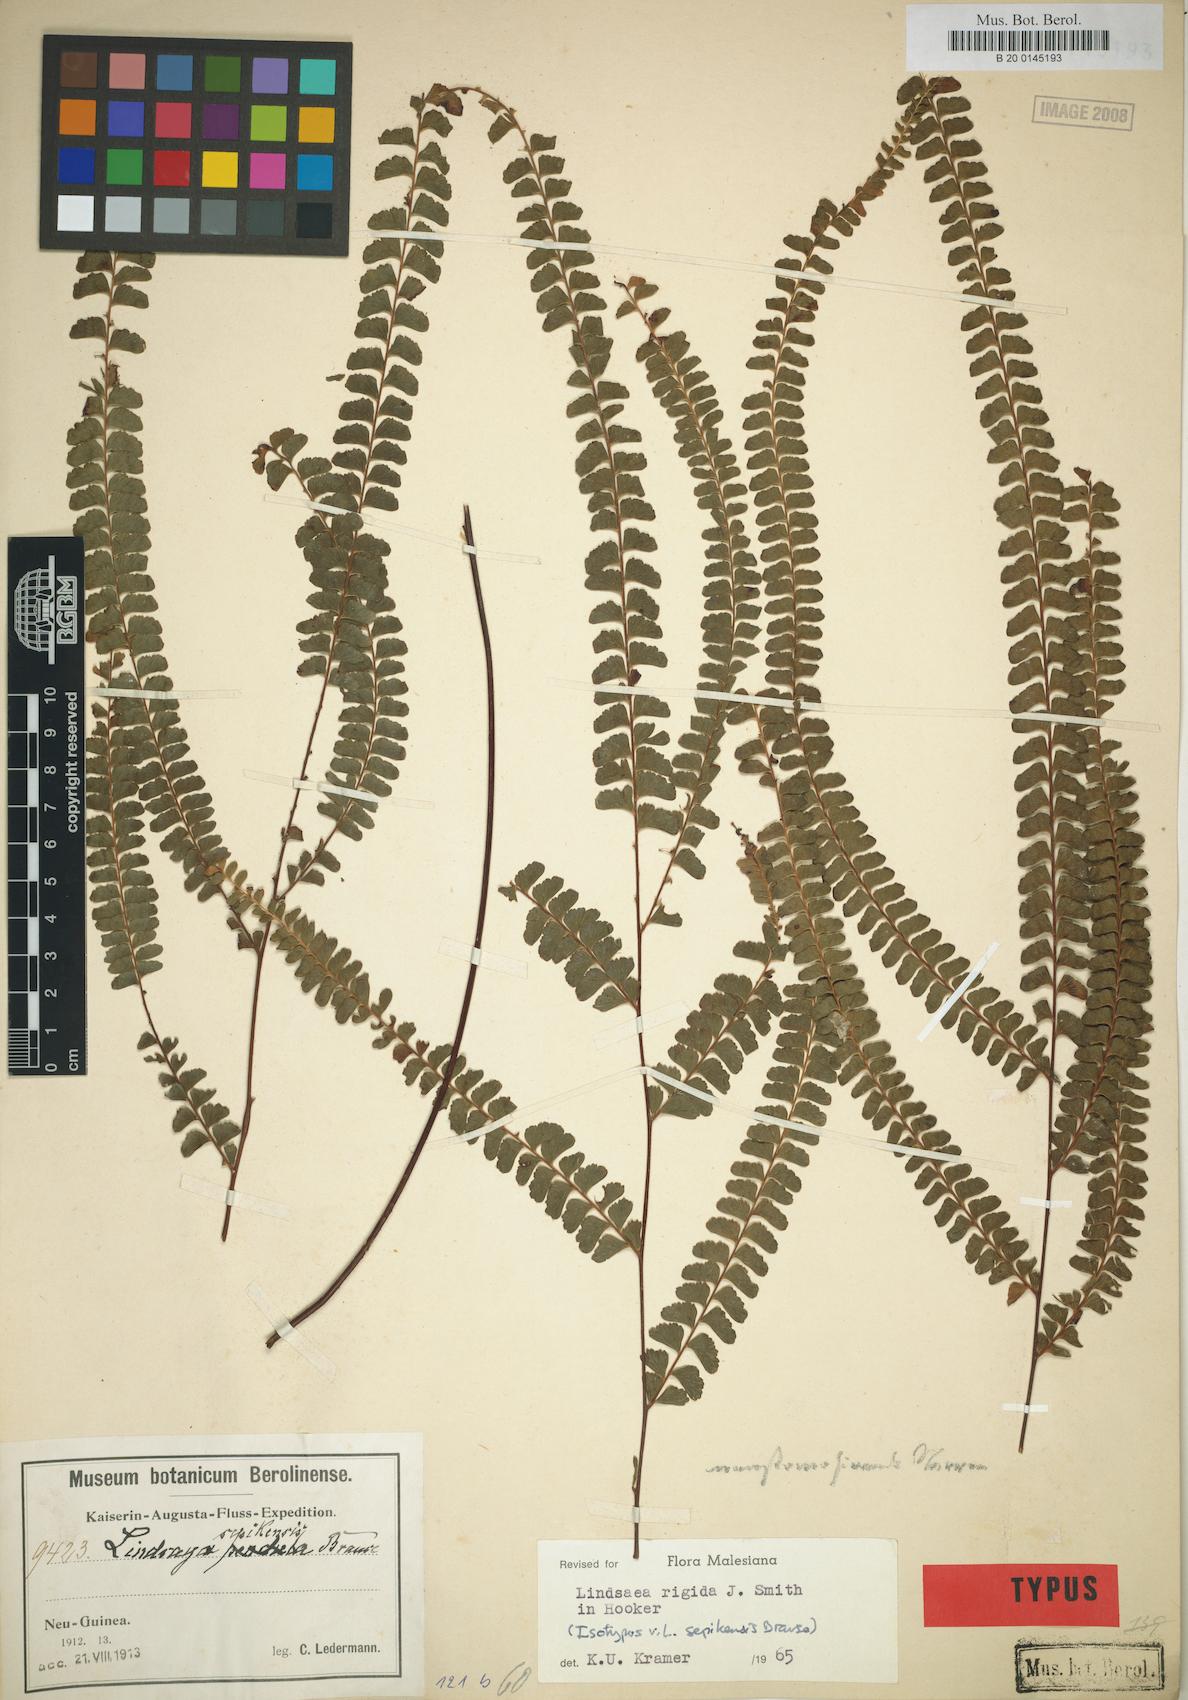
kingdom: Plantae
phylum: Tracheophyta
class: Polypodiopsida
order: Polypodiales
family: Lindsaeaceae
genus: Lindsaea
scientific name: Lindsaea rigida
